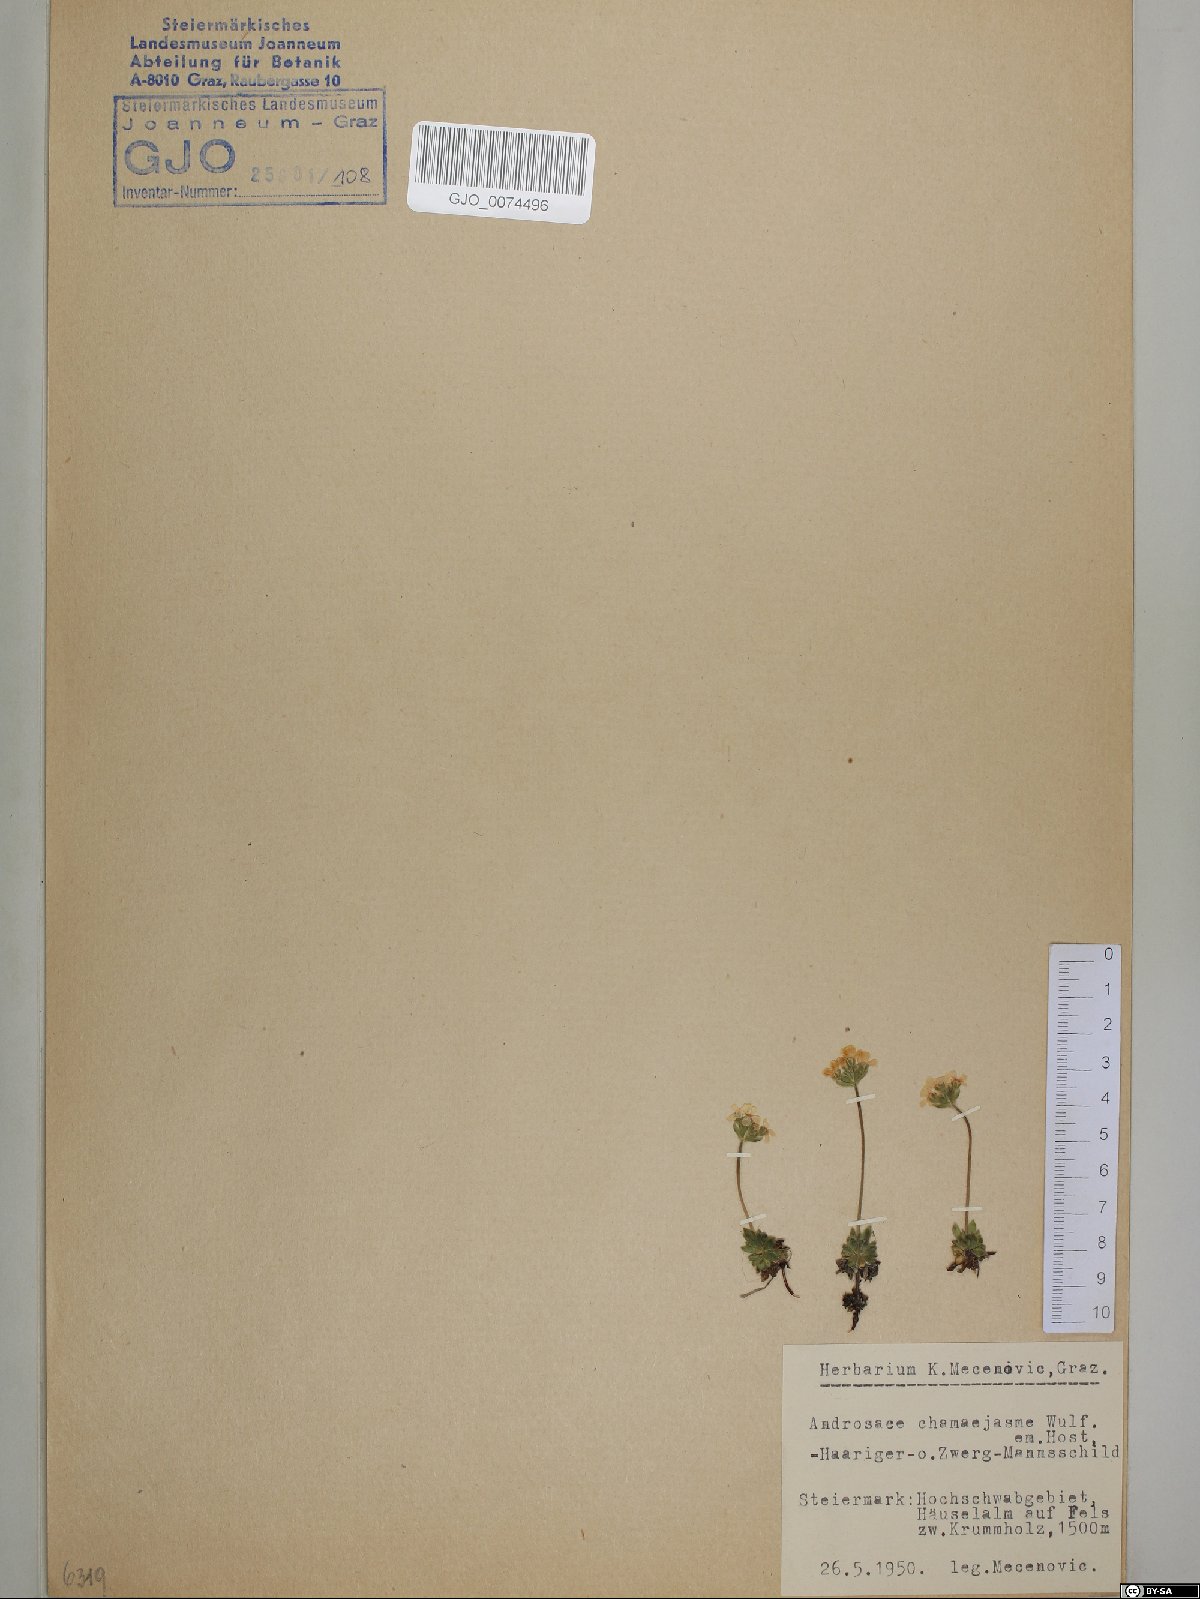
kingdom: Plantae
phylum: Tracheophyta
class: Magnoliopsida
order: Ericales
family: Primulaceae
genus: Androsace
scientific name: Androsace chamaejasme
